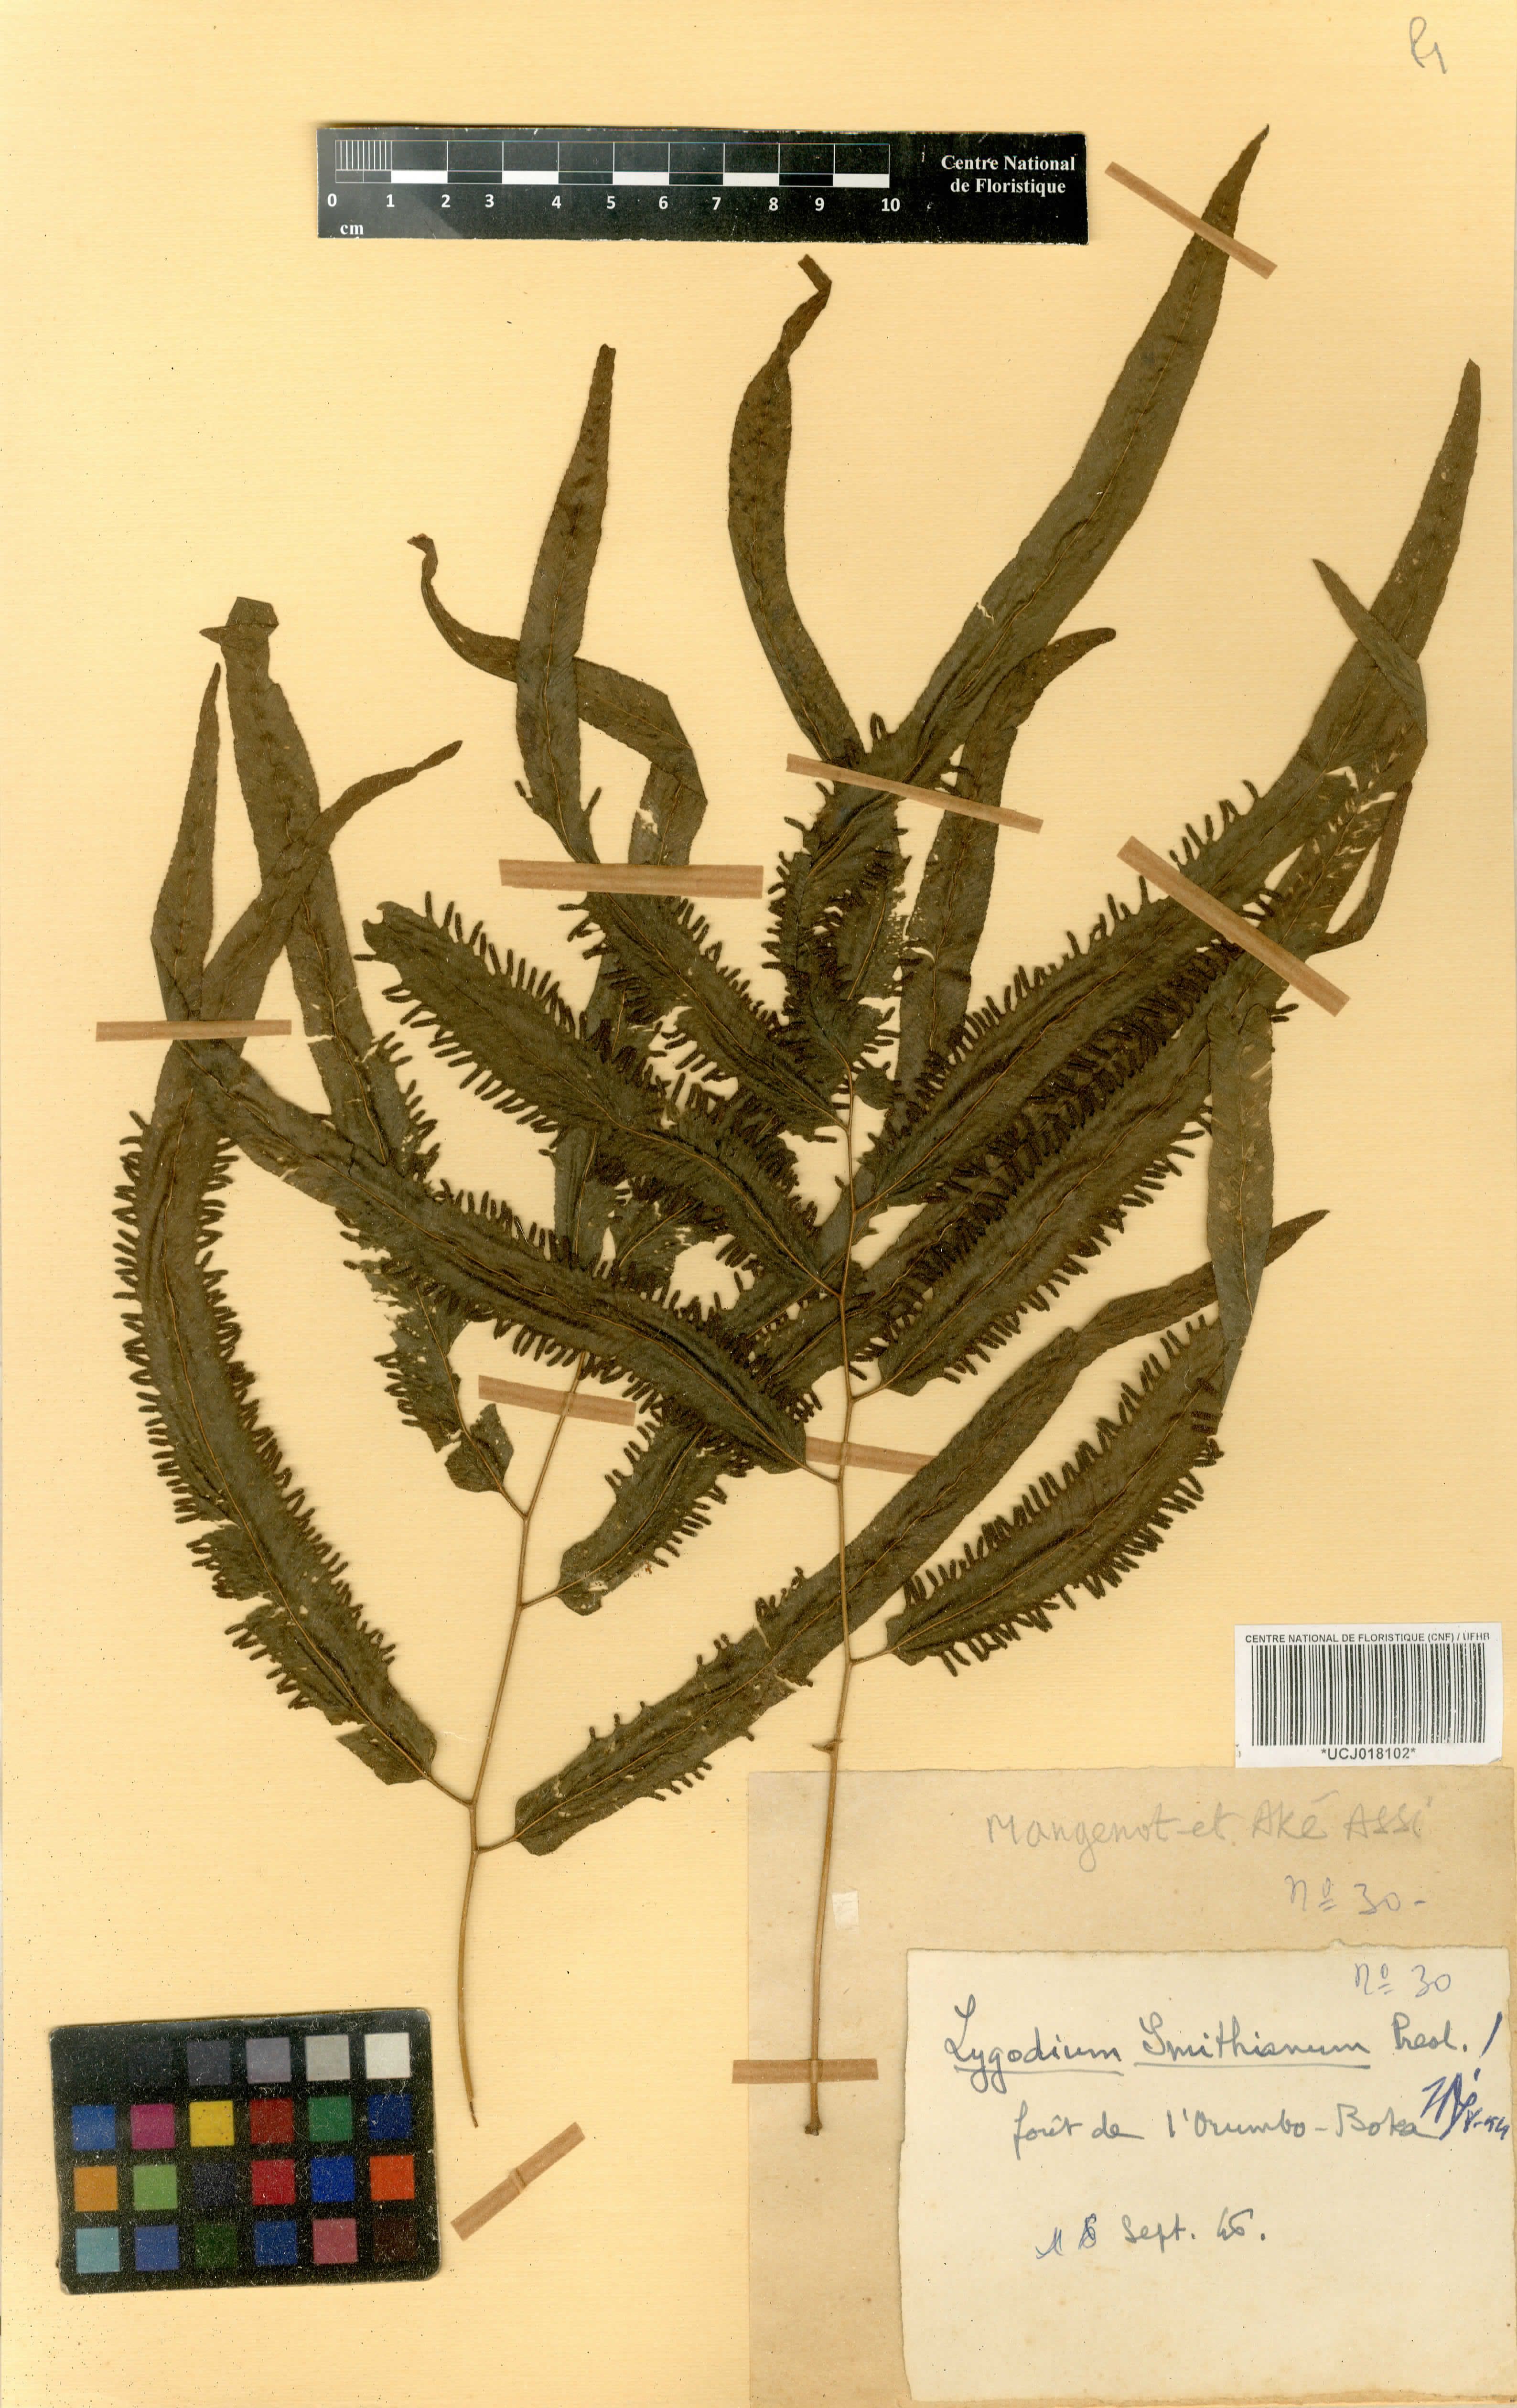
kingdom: Plantae
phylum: Tracheophyta
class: Polypodiopsida
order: Schizaeales
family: Lygodiaceae
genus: Lygodium
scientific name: Lygodium smithianum
